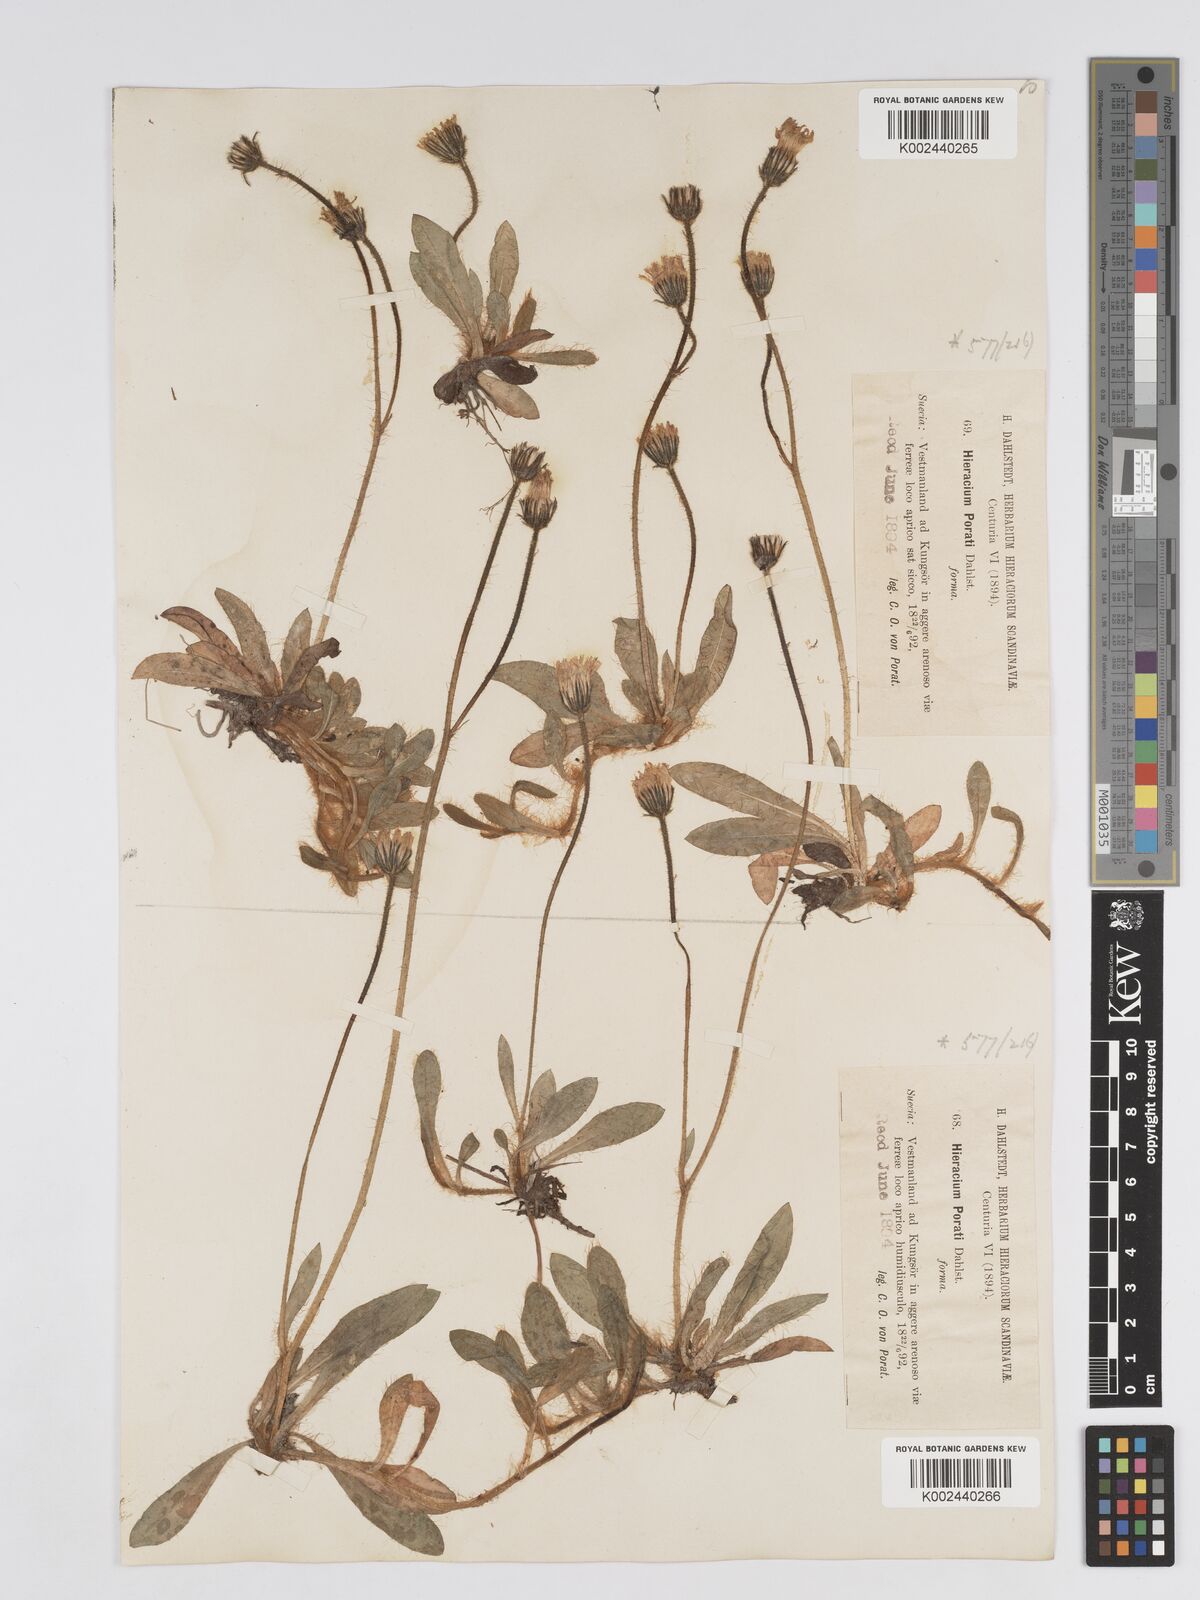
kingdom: Plantae
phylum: Tracheophyta
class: Magnoliopsida
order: Asterales
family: Asteraceae
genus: Hieracium
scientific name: Hieracium
